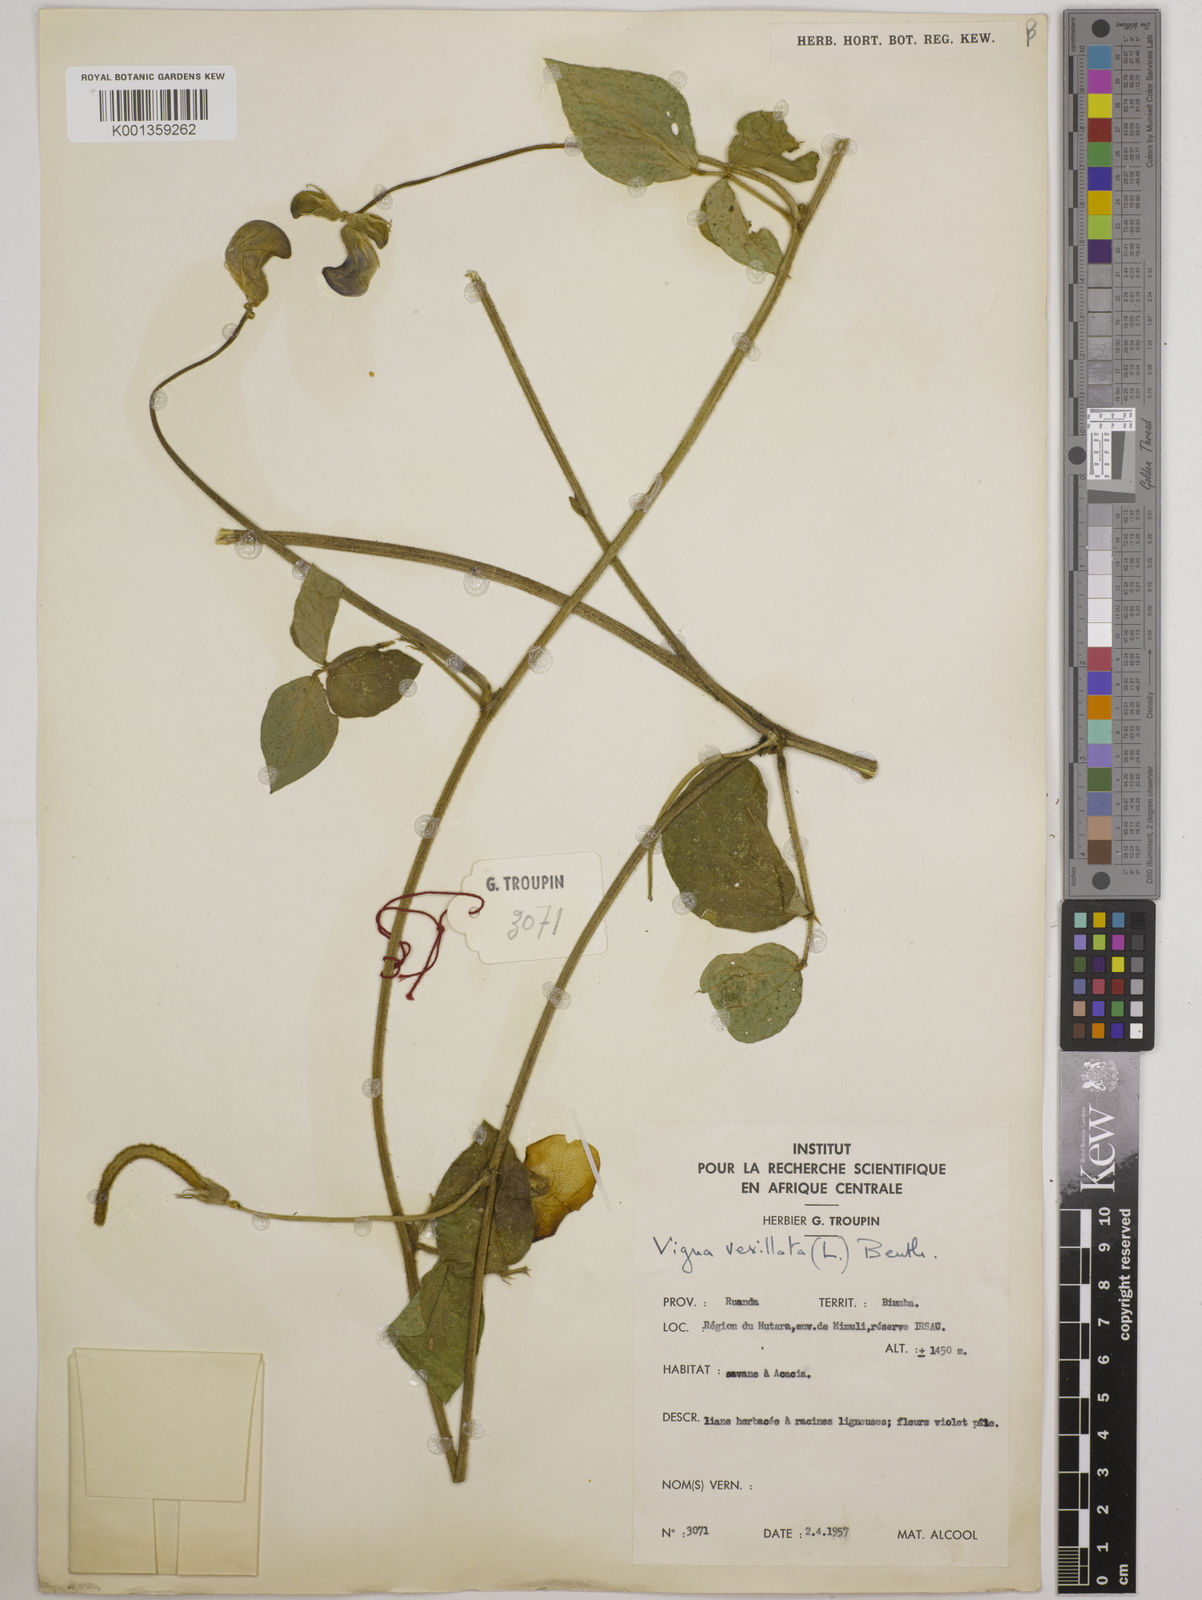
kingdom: Plantae
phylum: Tracheophyta
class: Magnoliopsida
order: Fabales
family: Fabaceae
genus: Vigna
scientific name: Vigna vexillata
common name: Zombi pea
